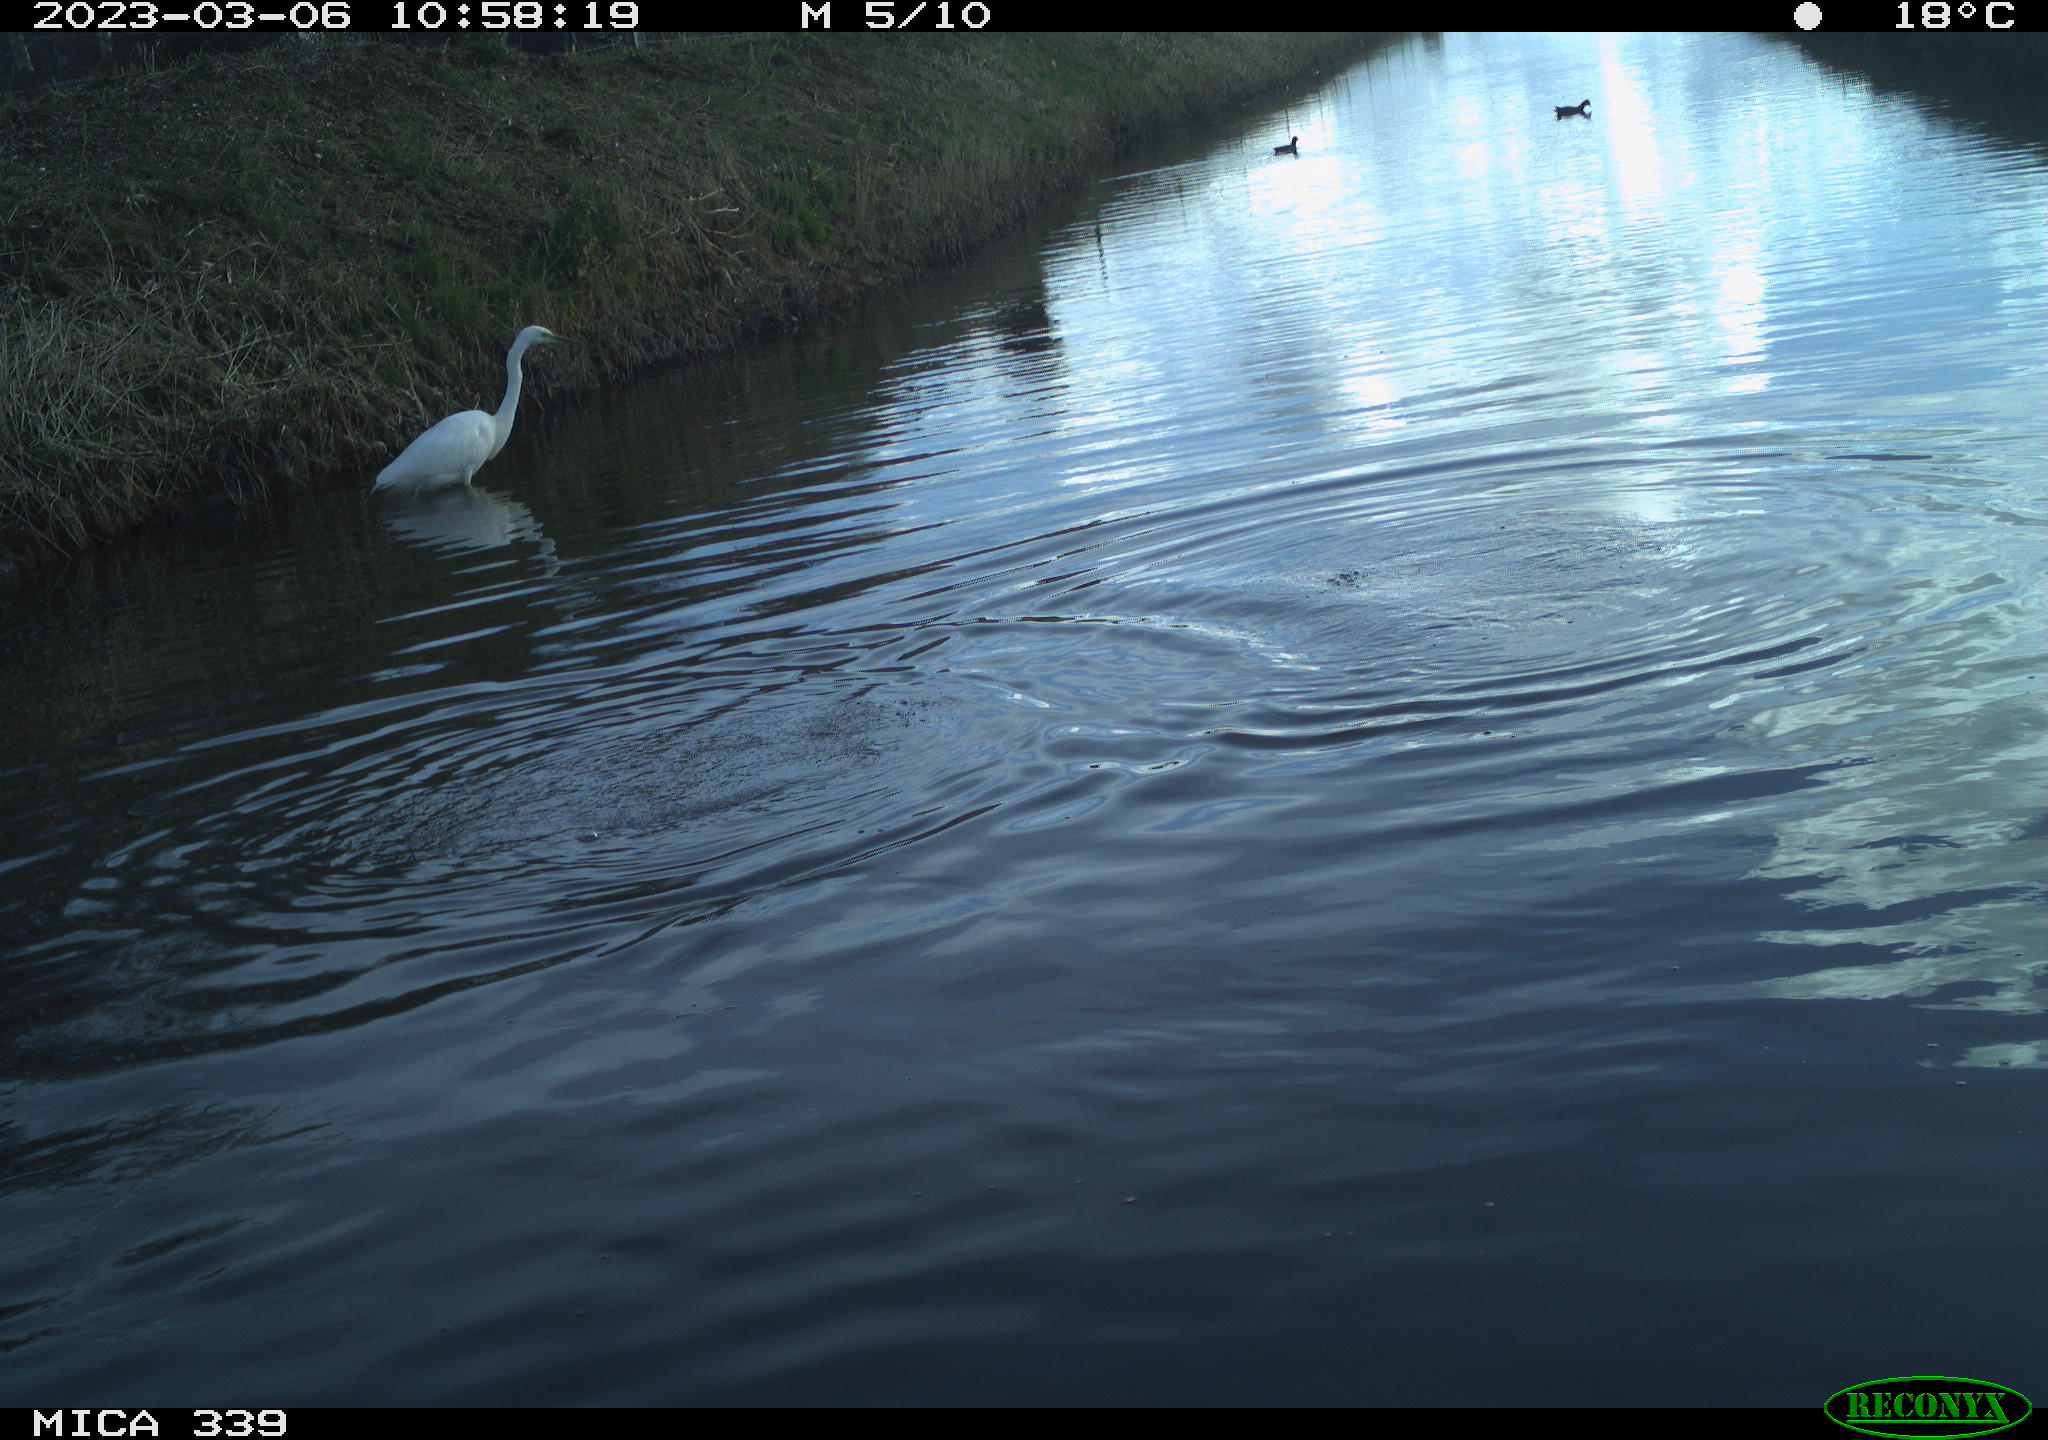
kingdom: Animalia
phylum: Chordata
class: Aves
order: Pelecaniformes
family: Ardeidae
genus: Ardea
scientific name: Ardea alba
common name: Great egret
